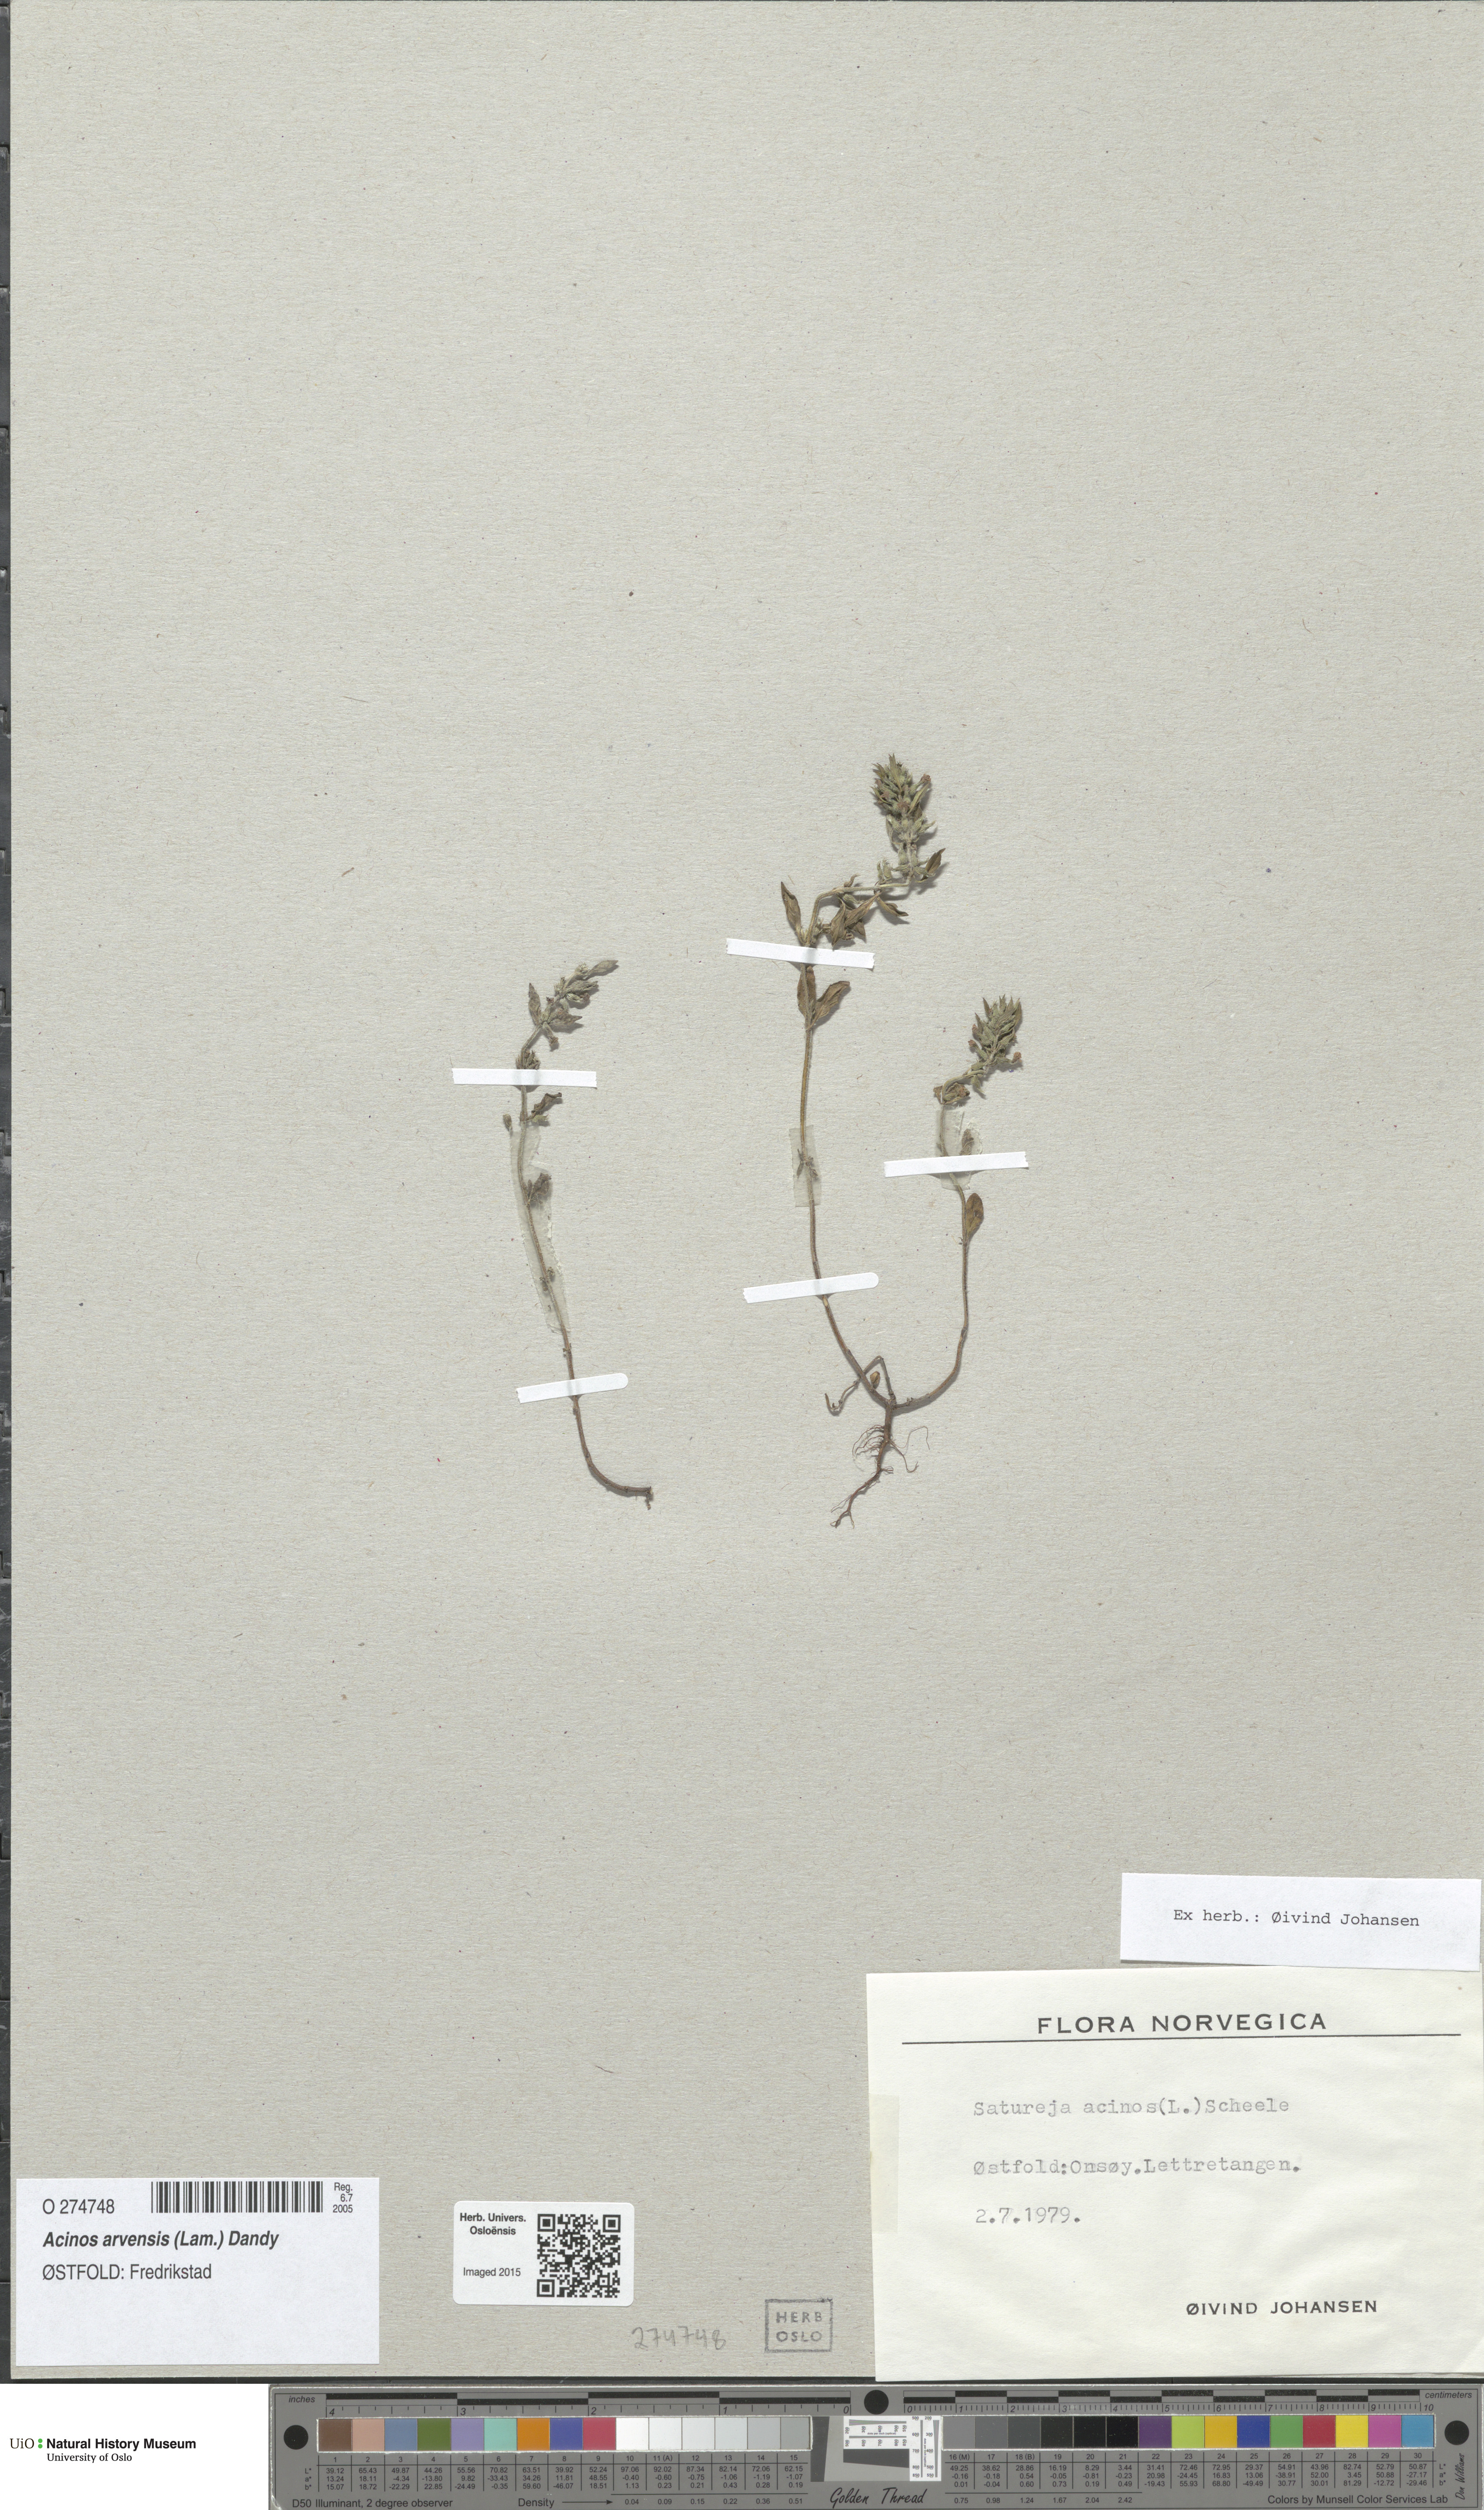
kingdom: Plantae
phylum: Tracheophyta
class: Magnoliopsida
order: Lamiales
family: Lamiaceae
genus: Clinopodium
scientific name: Clinopodium acinos
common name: Basil thyme
